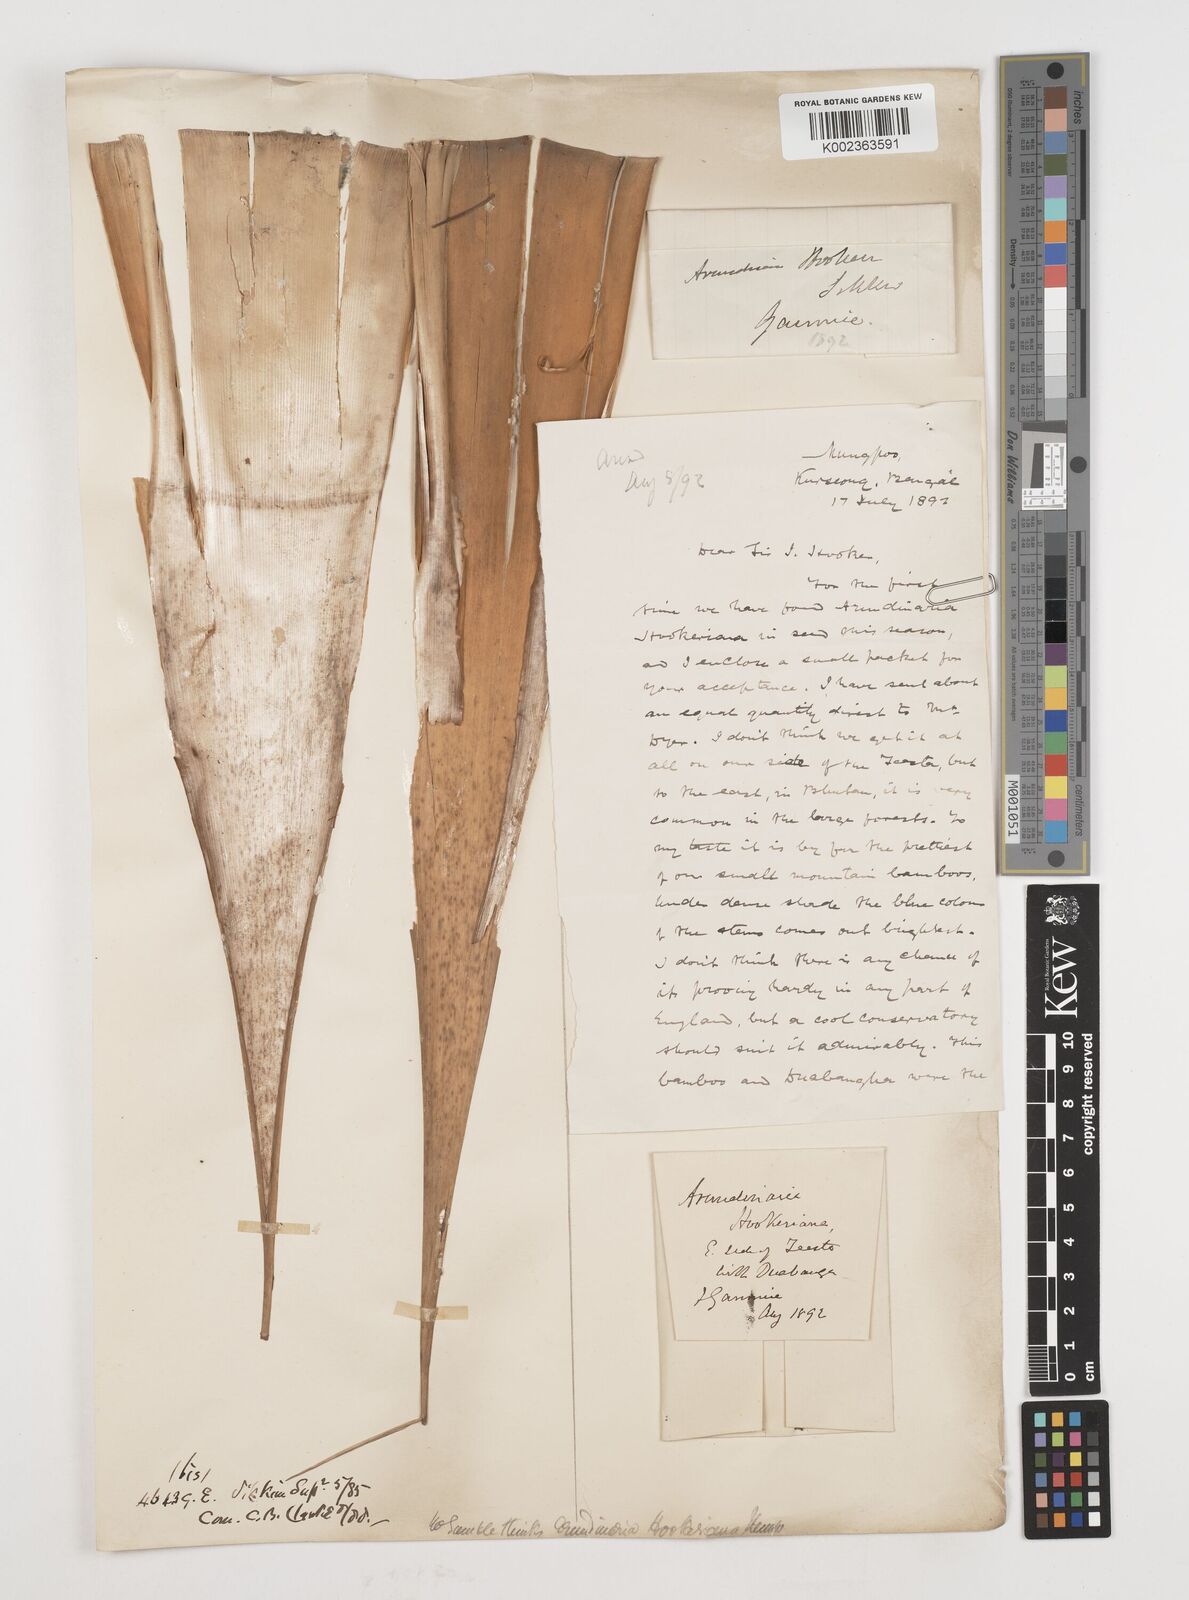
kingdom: Plantae
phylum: Tracheophyta
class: Liliopsida
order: Poales
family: Poaceae
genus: Himalayacalamus
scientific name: Himalayacalamus hookerianus
